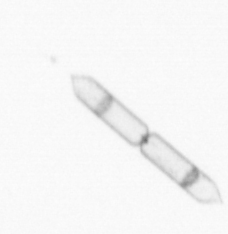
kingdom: Chromista
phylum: Ochrophyta
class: Bacillariophyceae
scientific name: Bacillariophyceae
